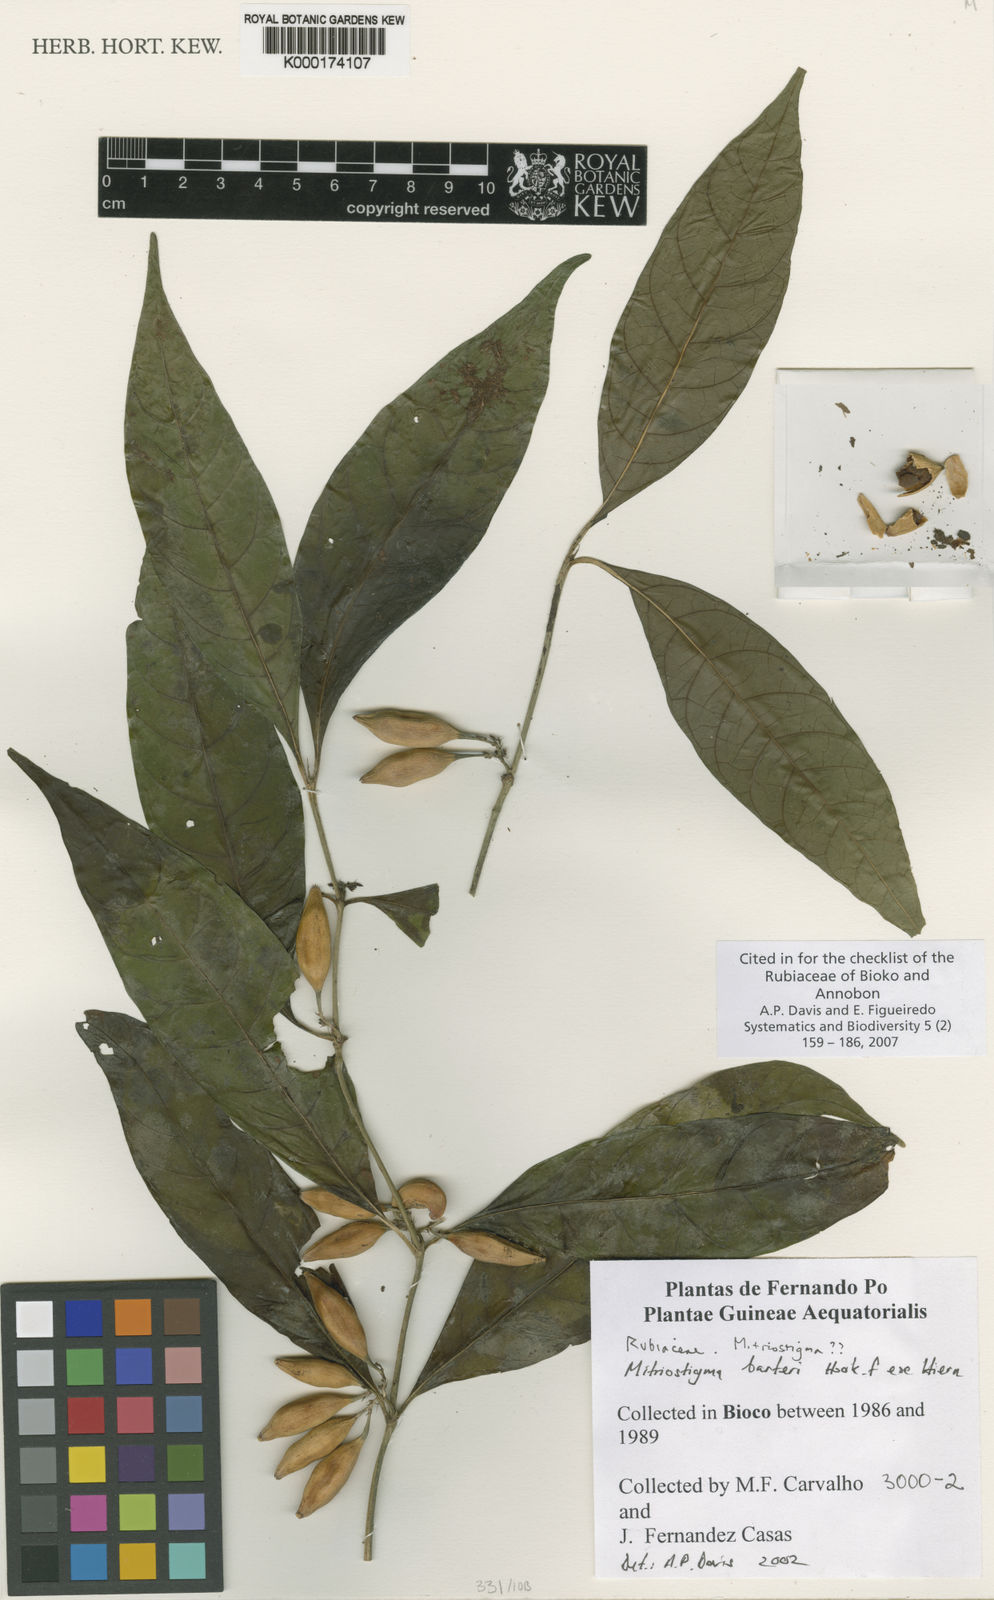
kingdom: Plantae
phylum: Tracheophyta
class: Magnoliopsida
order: Gentianales
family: Rubiaceae
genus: Mitriostigma
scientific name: Mitriostigma barteri
